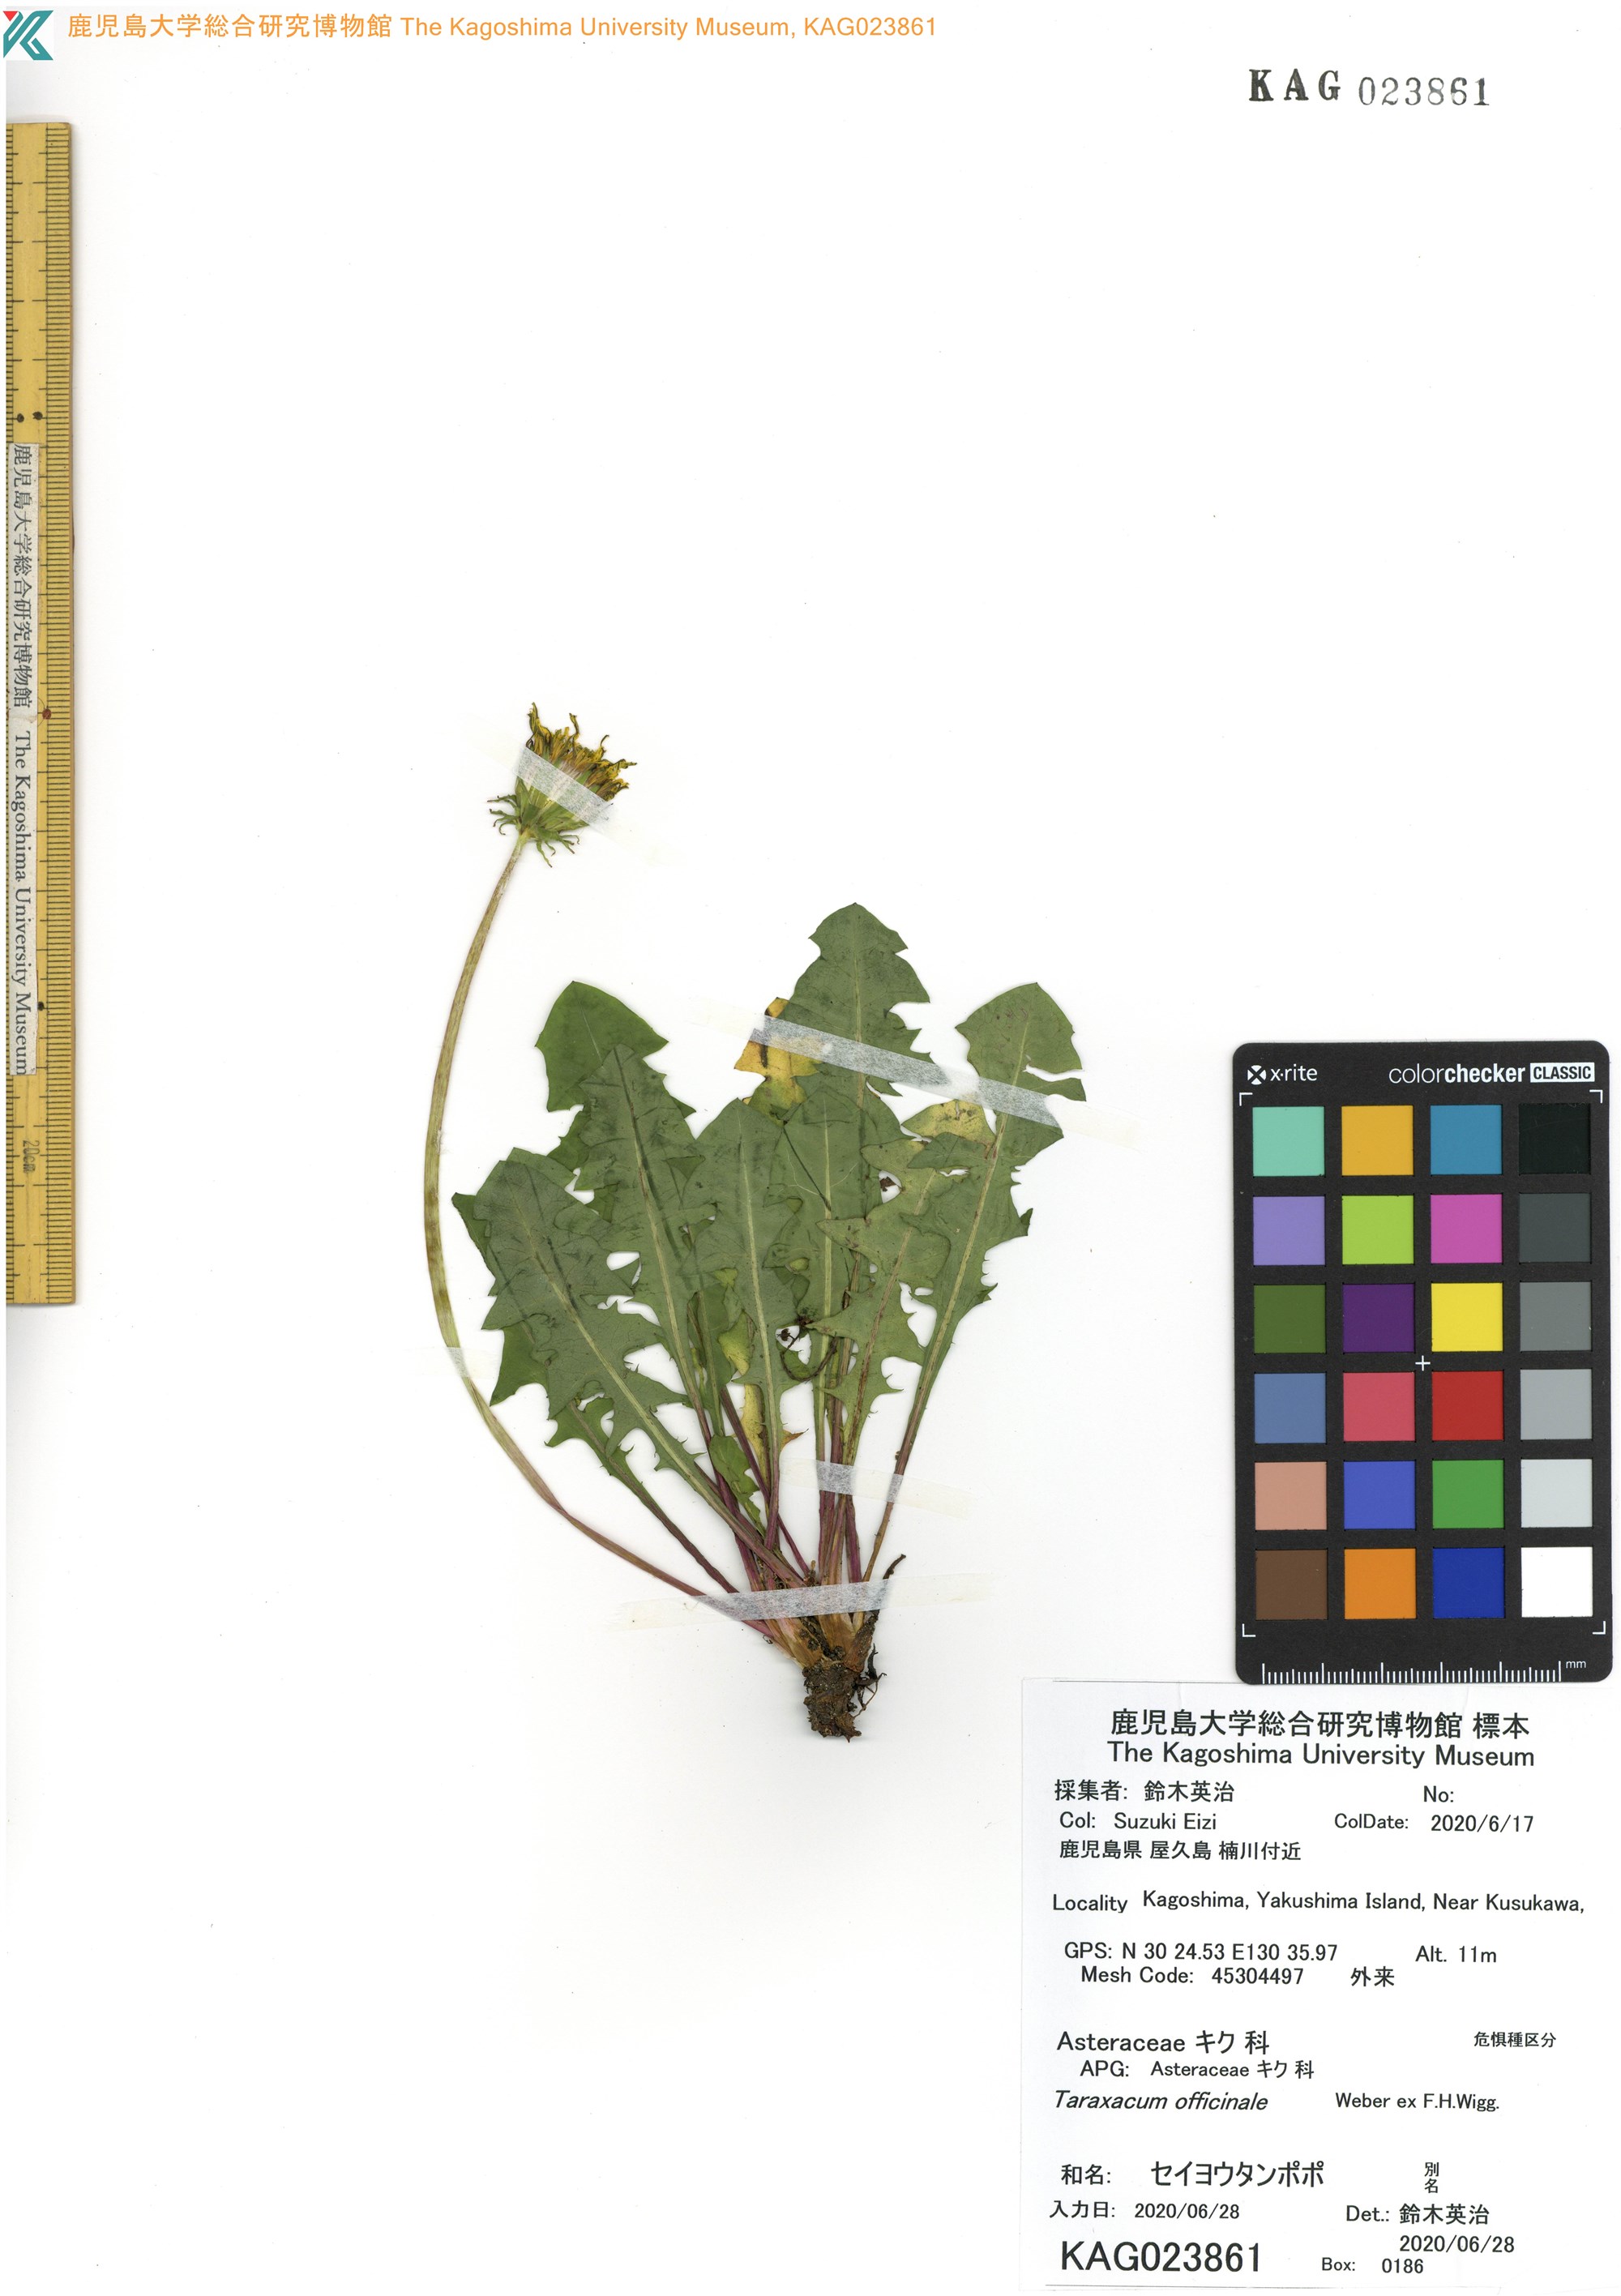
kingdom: Plantae
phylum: Tracheophyta
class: Magnoliopsida
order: Asterales
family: Asteraceae
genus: Taraxacum
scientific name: Taraxacum officinale
